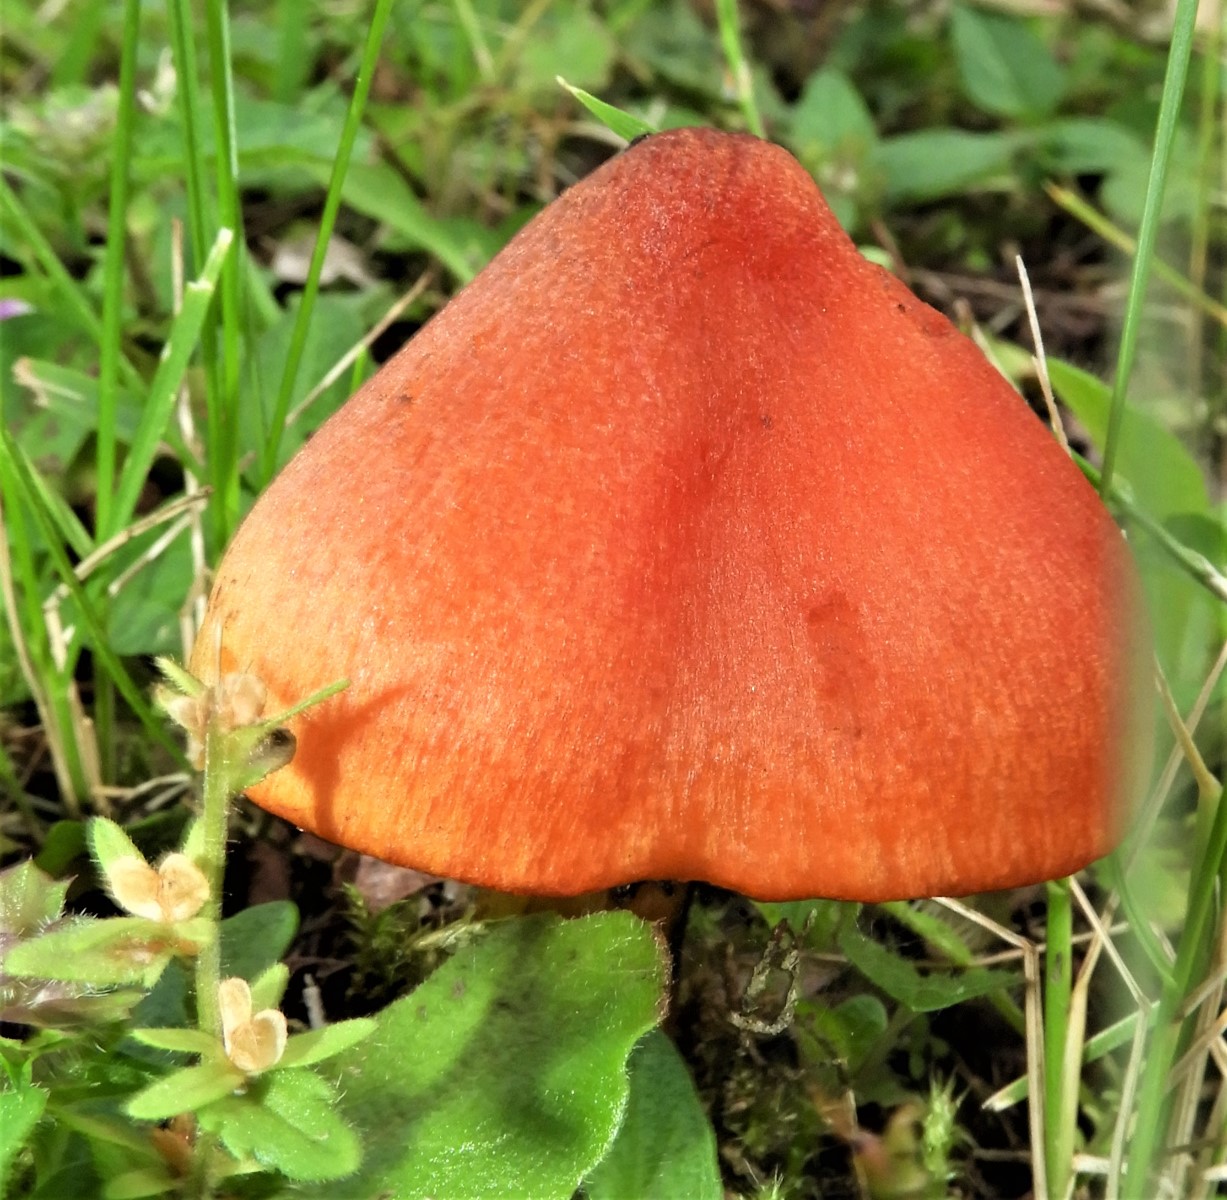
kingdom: Fungi
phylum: Basidiomycota
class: Agaricomycetes
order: Agaricales
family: Hygrophoraceae
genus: Hygrocybe
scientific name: Hygrocybe conica
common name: kegle-vokshat
